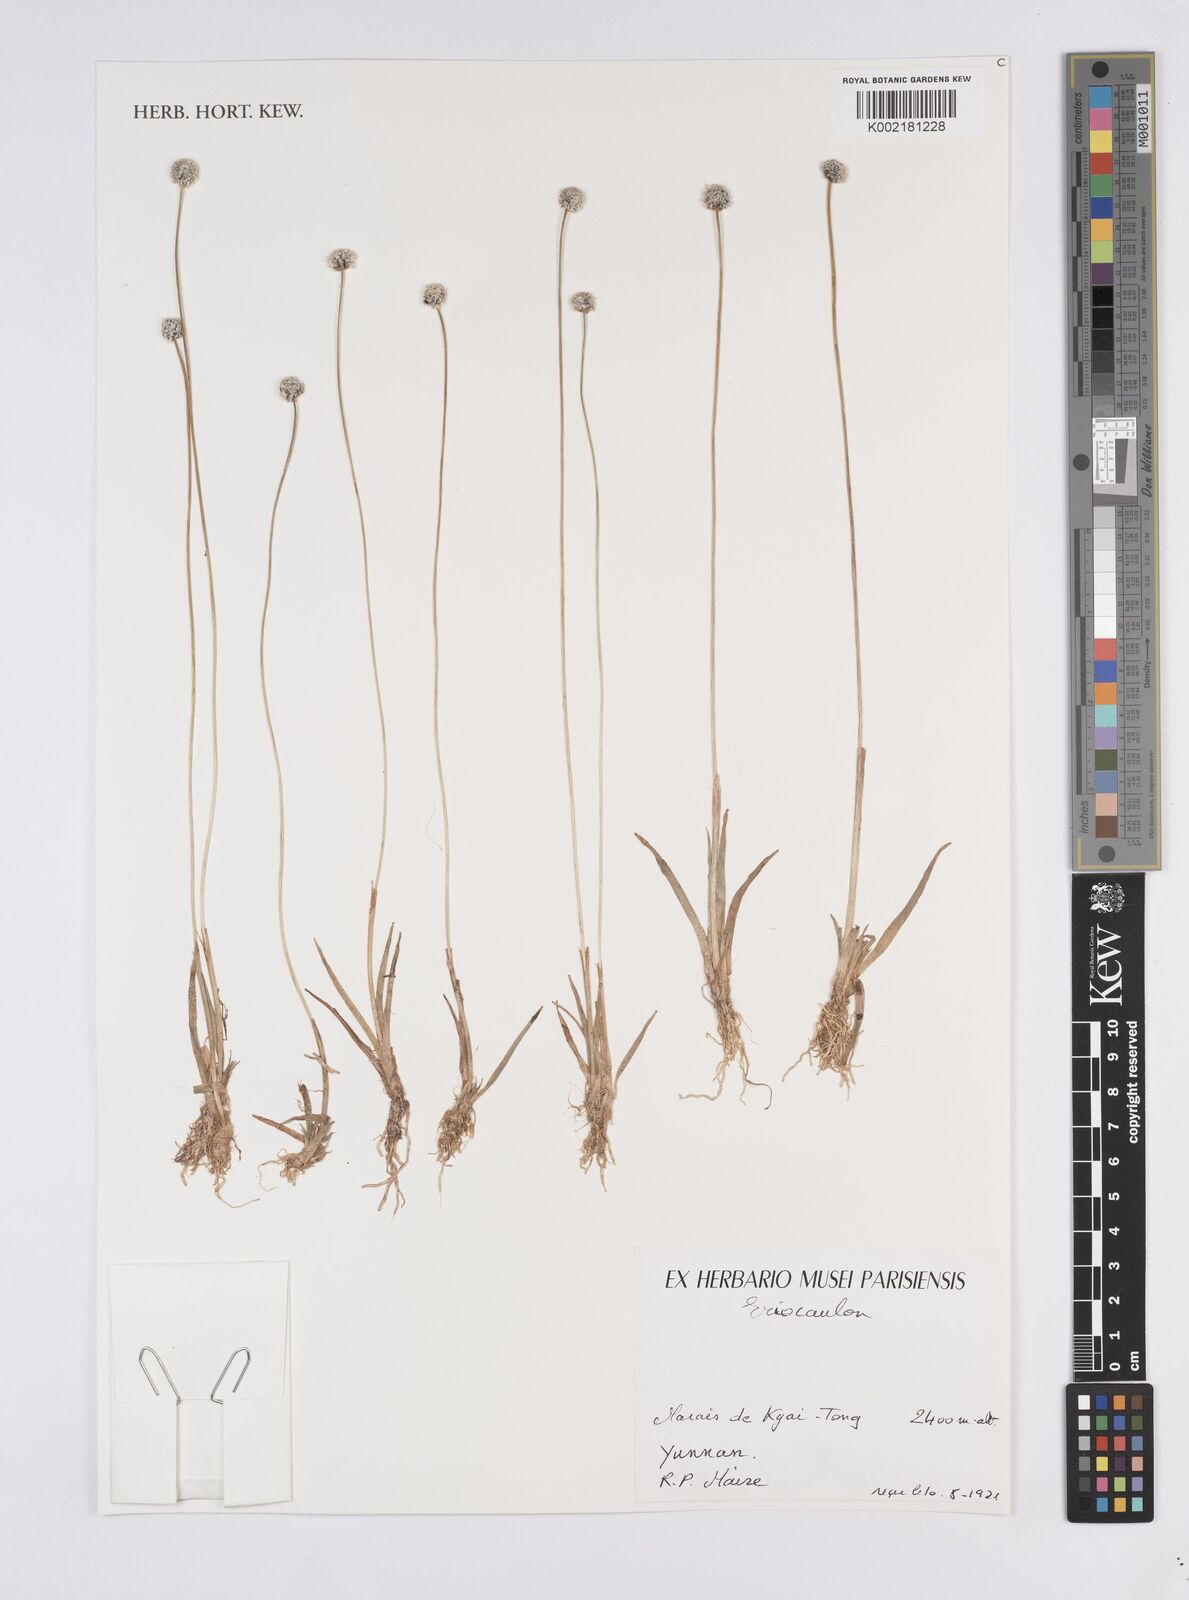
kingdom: Plantae
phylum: Tracheophyta
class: Liliopsida
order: Poales
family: Eriocaulaceae
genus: Eriocaulon
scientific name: Eriocaulon
